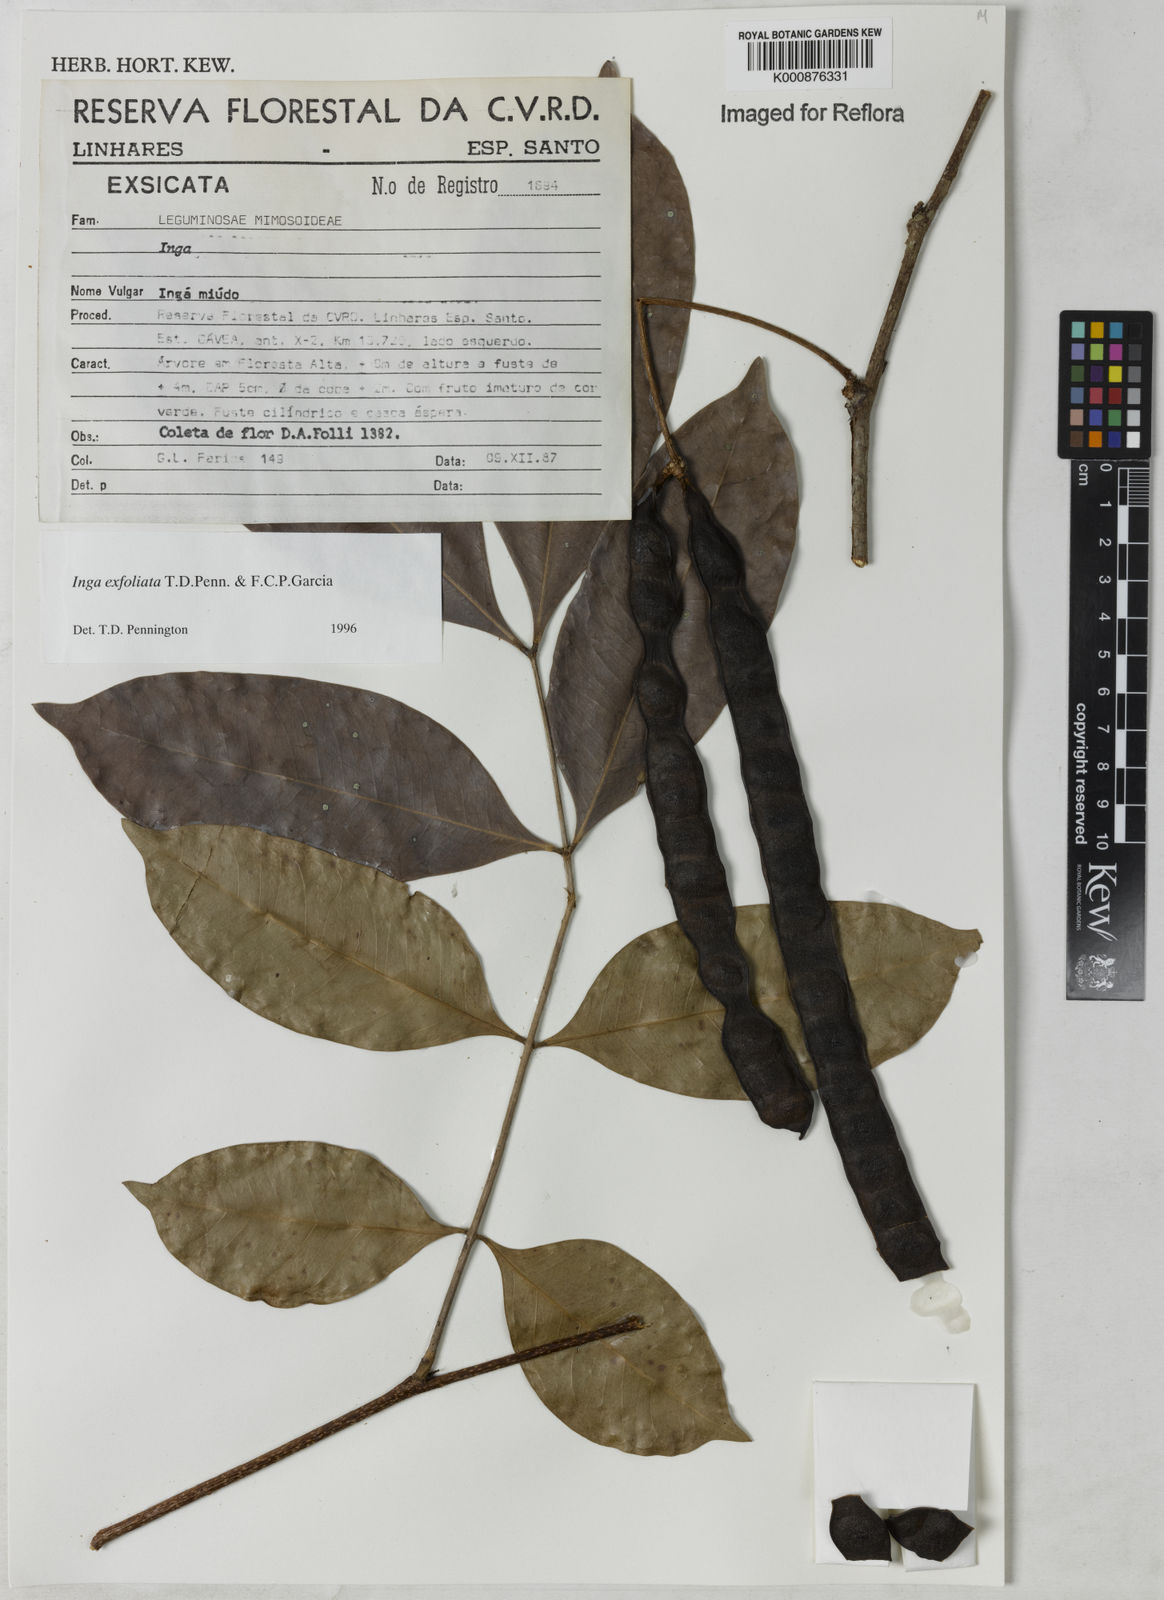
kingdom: Plantae
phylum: Tracheophyta
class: Magnoliopsida
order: Fabales
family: Fabaceae
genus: Inga
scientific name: Inga
